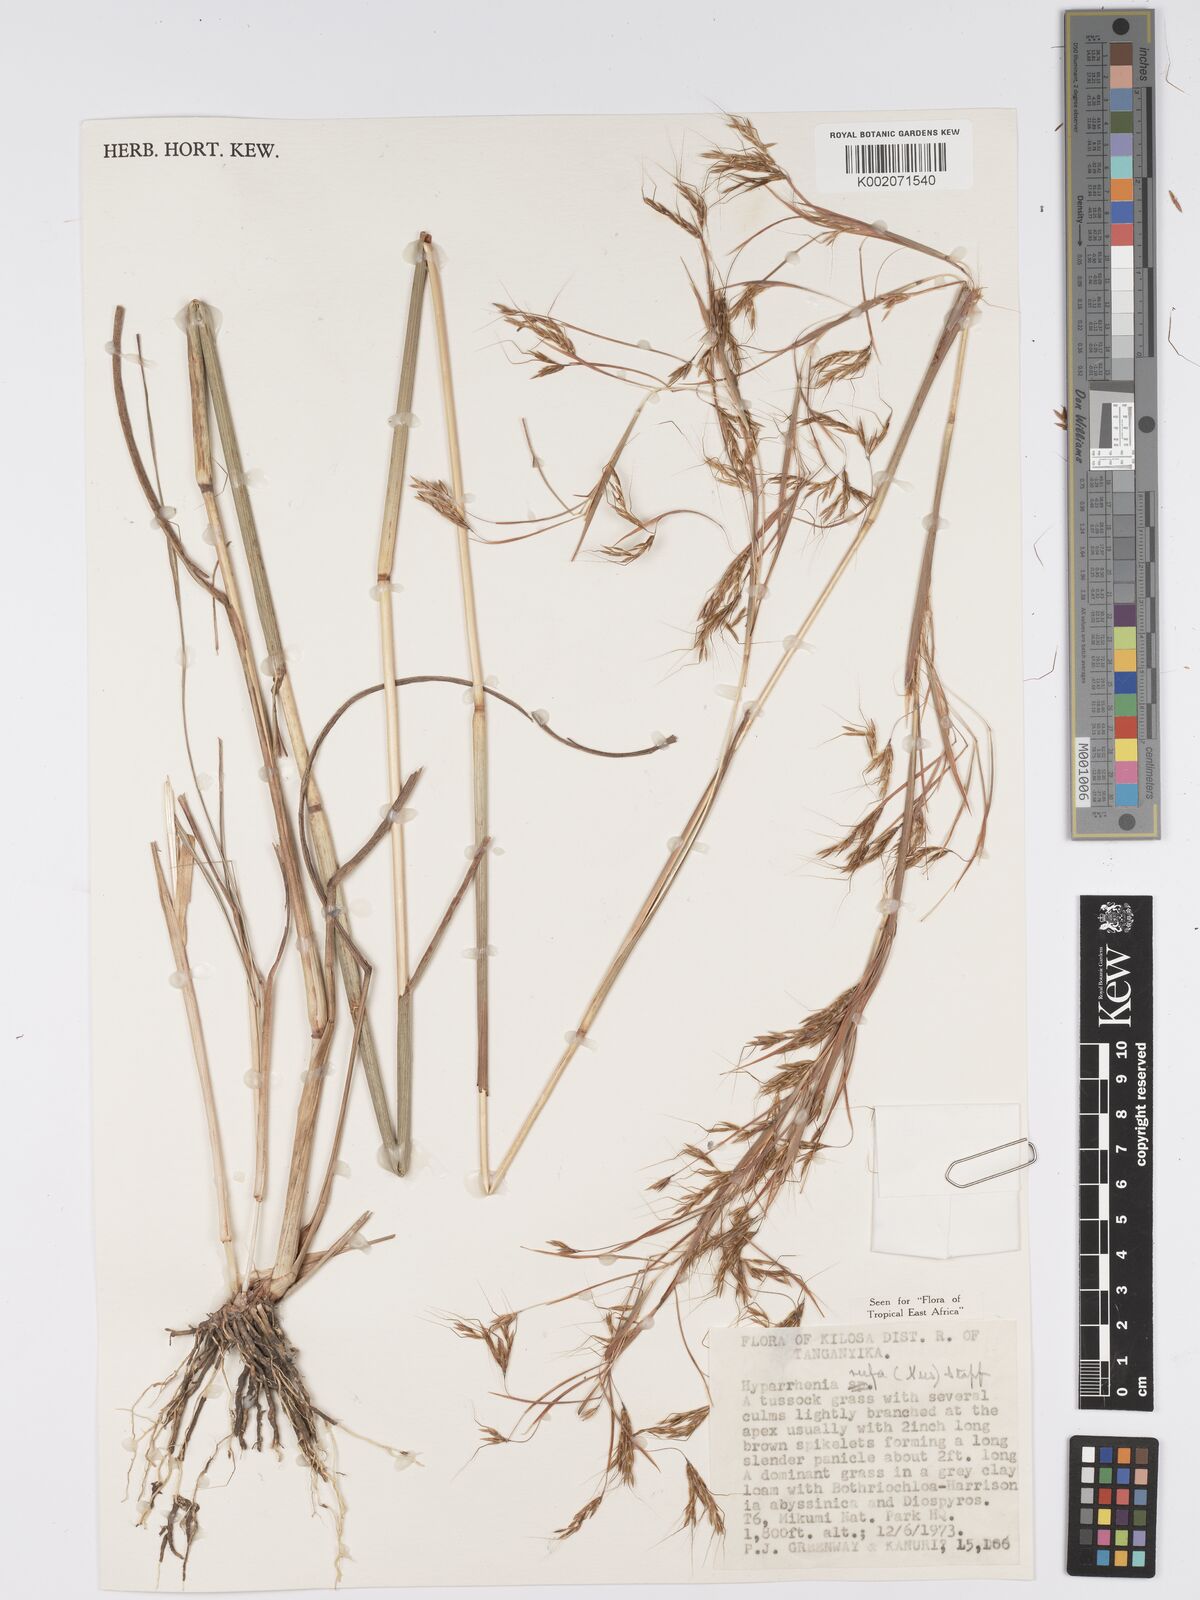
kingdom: Plantae
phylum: Tracheophyta
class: Liliopsida
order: Poales
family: Poaceae
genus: Hyparrhenia
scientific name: Hyparrhenia rufa
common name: Jaraguagrass
